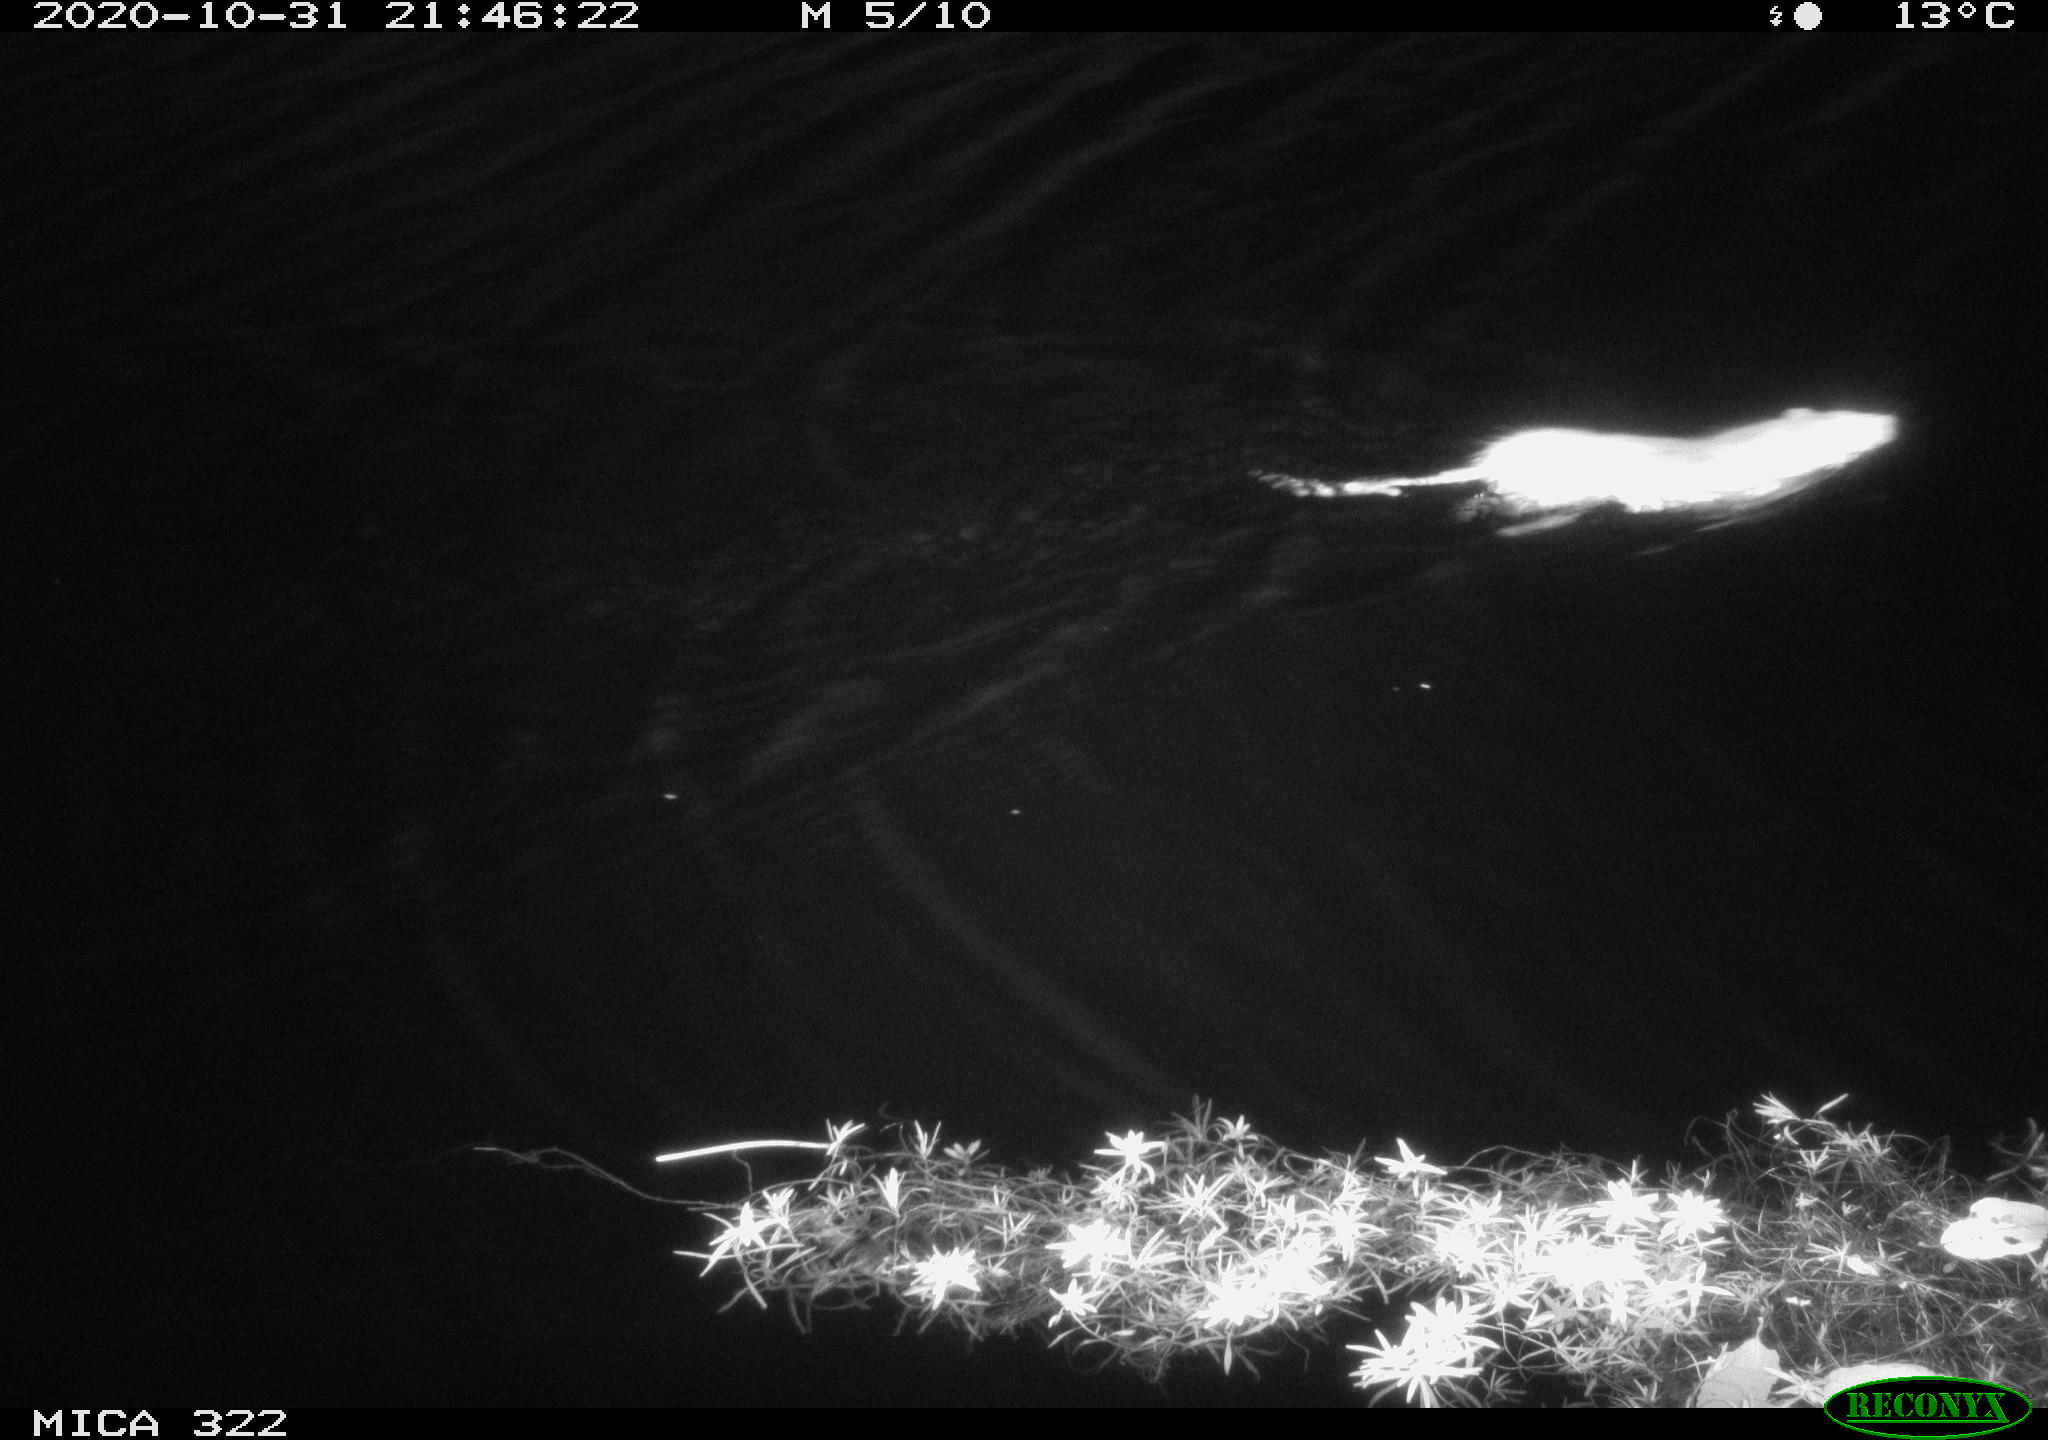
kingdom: Animalia
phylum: Chordata
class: Mammalia
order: Rodentia
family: Muridae
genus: Rattus
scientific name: Rattus norvegicus
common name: Brown rat
